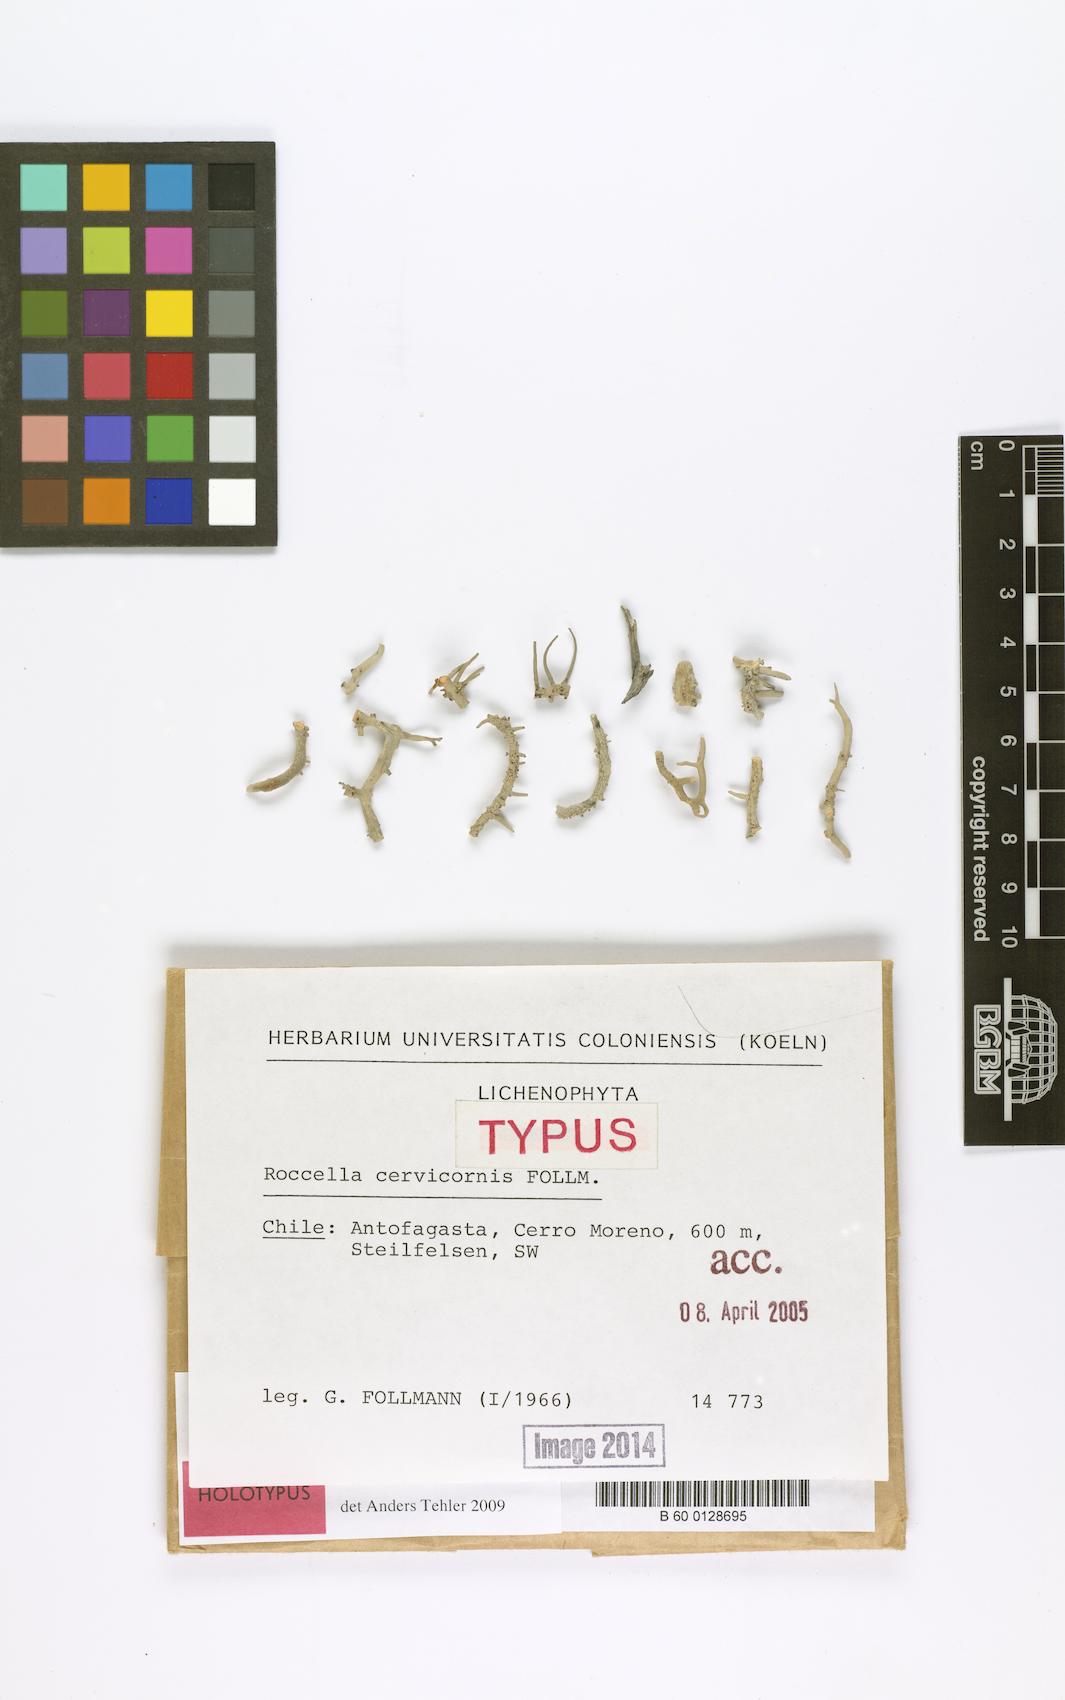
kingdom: Fungi
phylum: Ascomycota
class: Arthoniomycetes
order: Arthoniales
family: Roccellaceae
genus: Roccella
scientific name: Roccella
